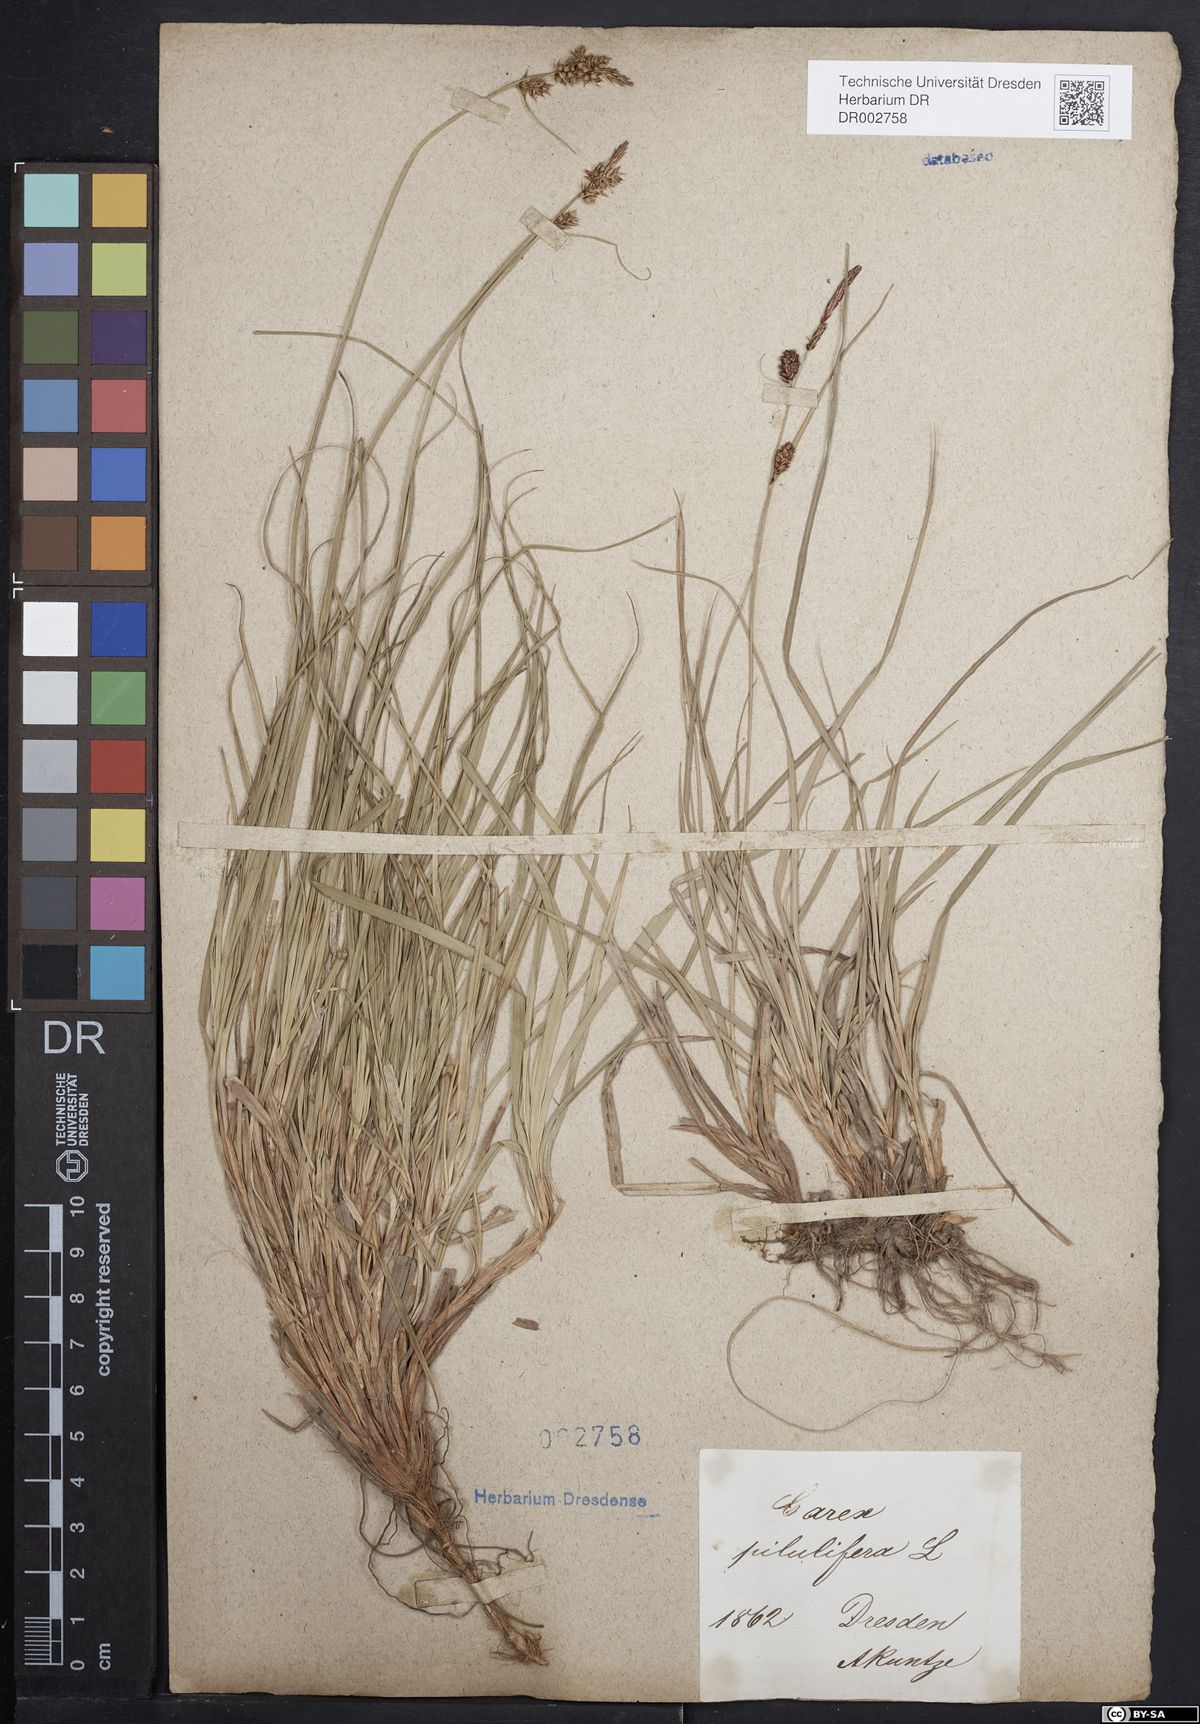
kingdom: Plantae
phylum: Tracheophyta
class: Liliopsida
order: Poales
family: Cyperaceae
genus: Carex
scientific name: Carex caryophyllea
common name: Spring sedge
